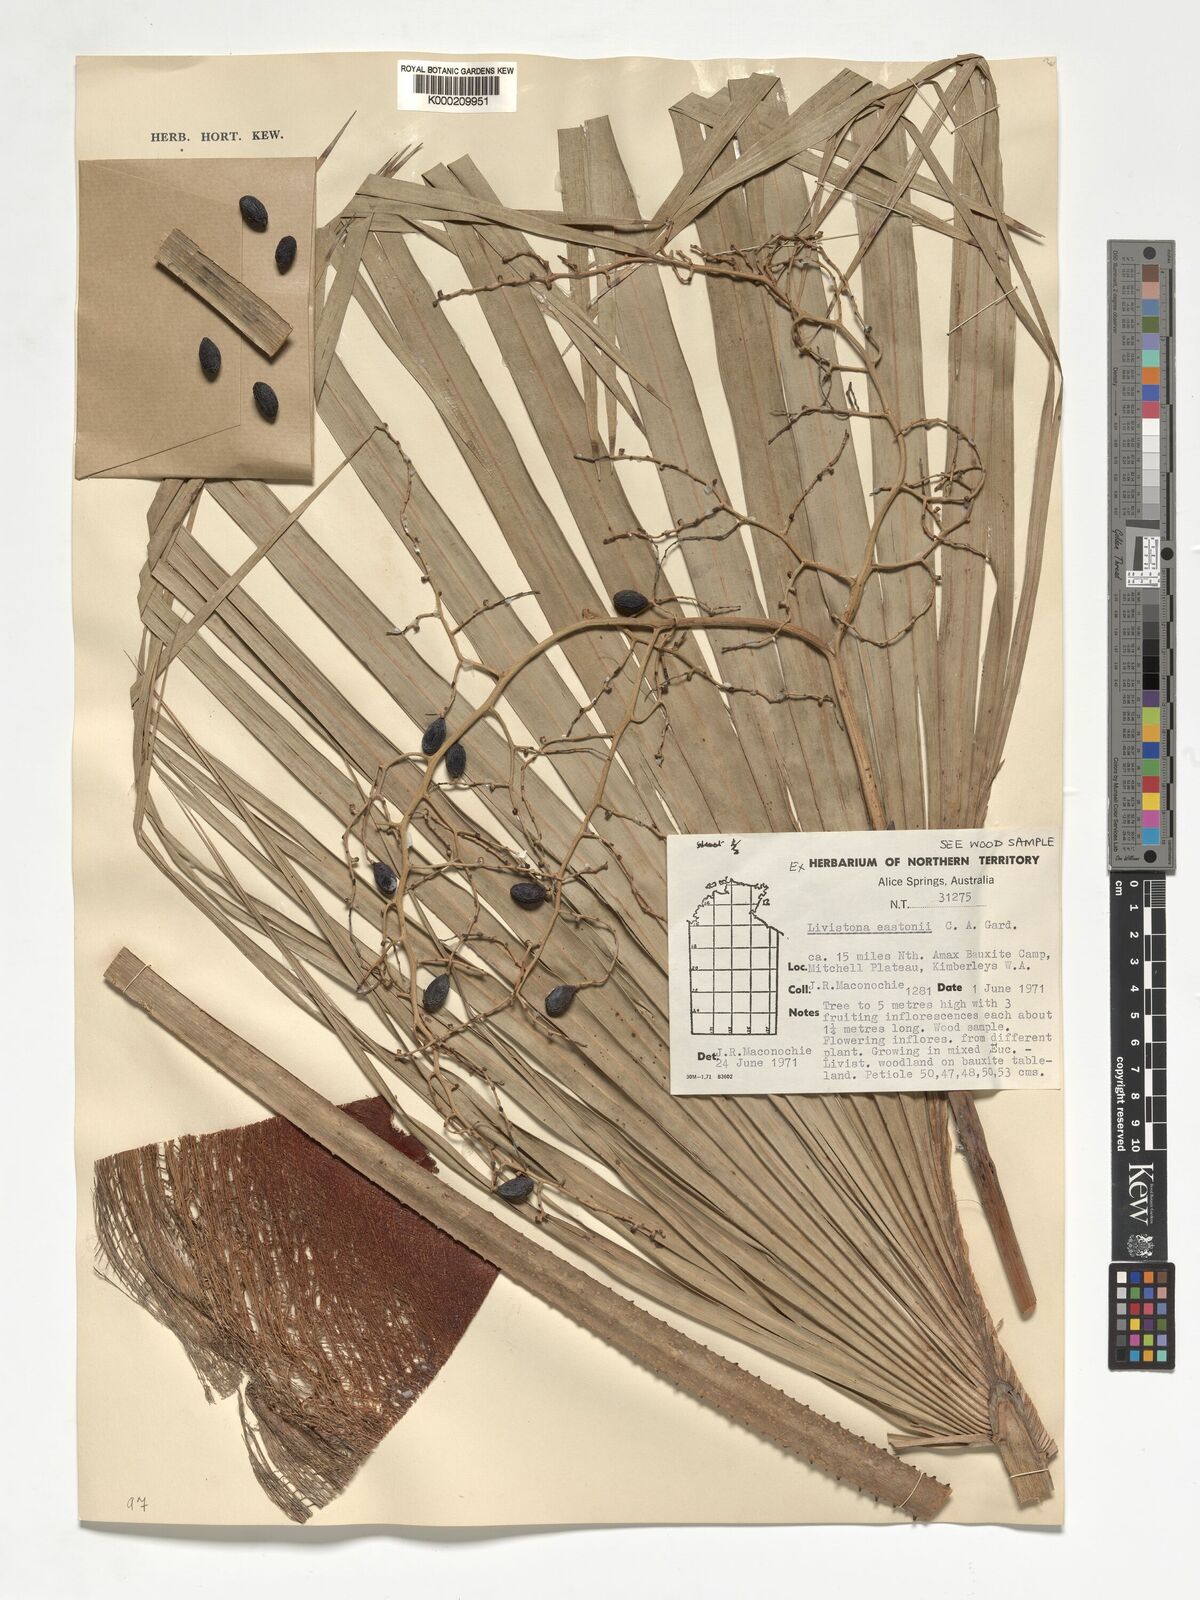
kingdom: Plantae
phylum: Tracheophyta
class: Liliopsida
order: Arecales
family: Arecaceae
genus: Livistona
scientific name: Livistona eastonii
